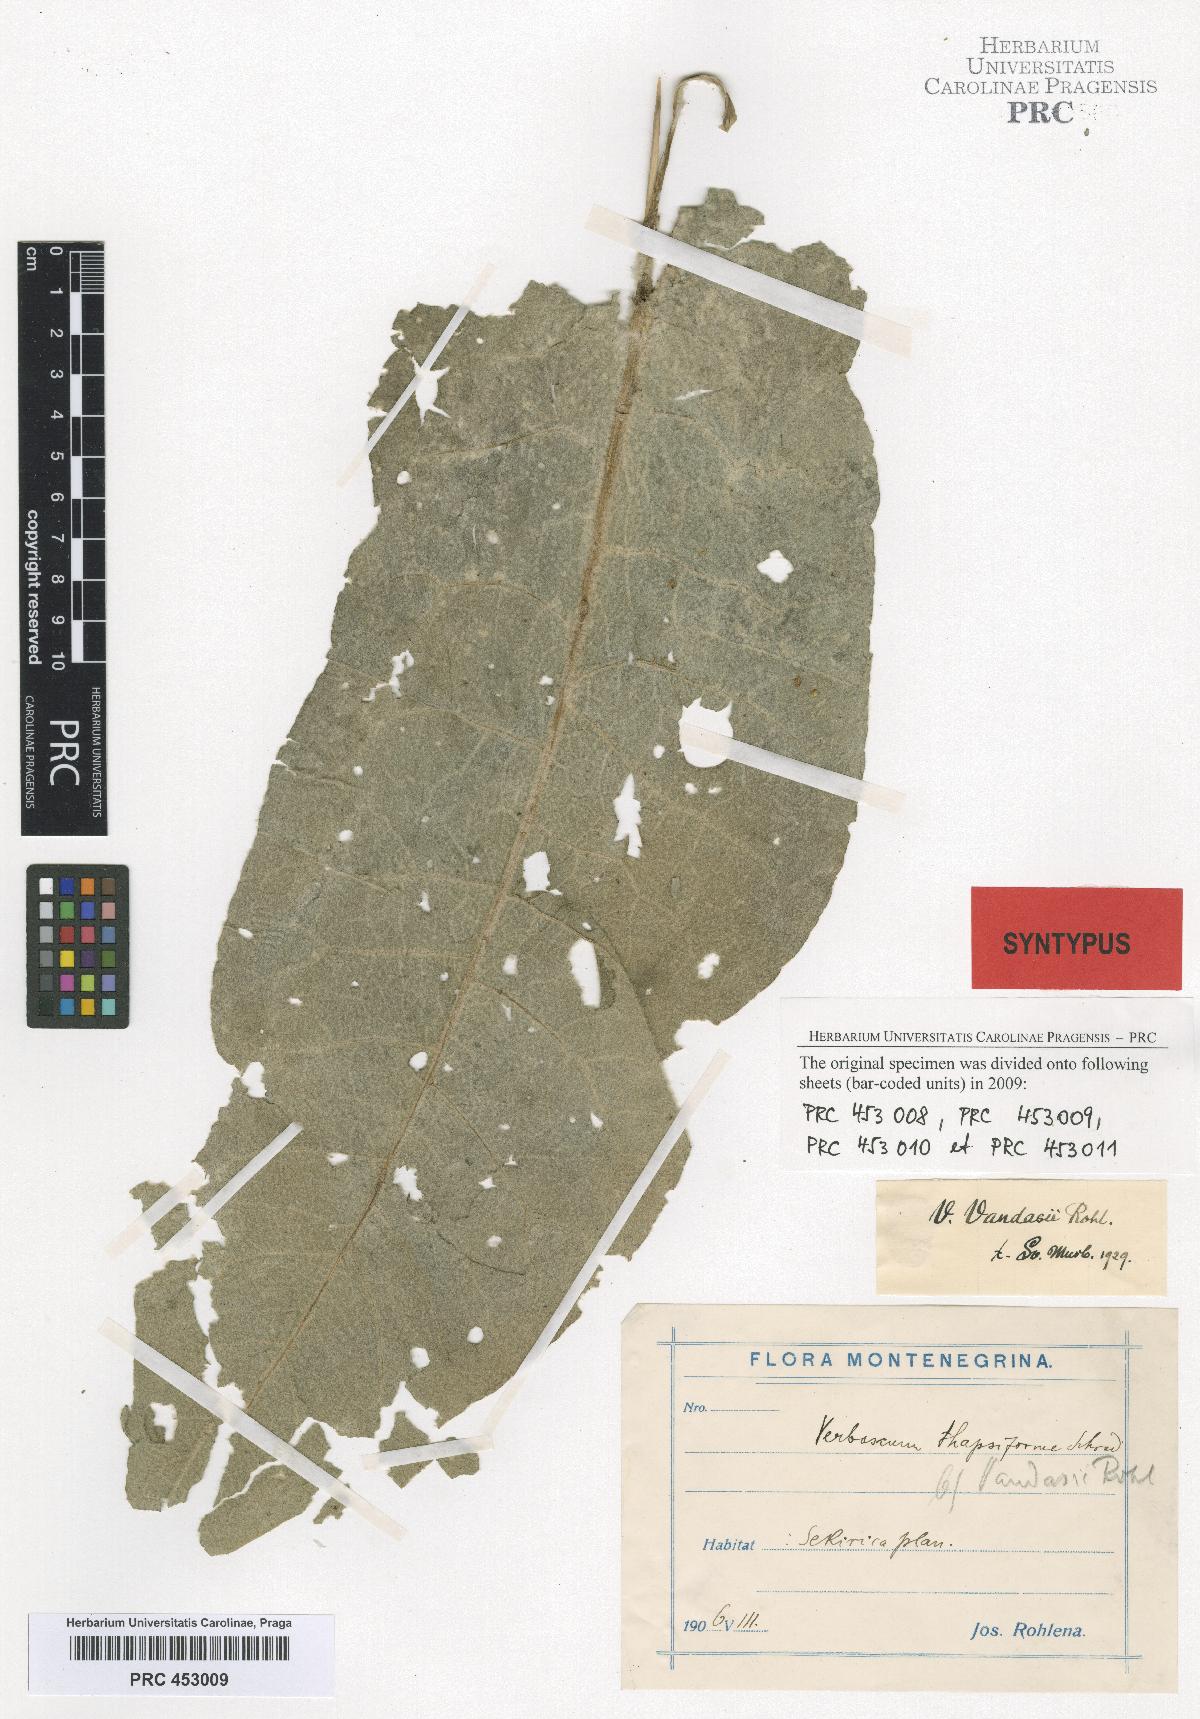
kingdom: Plantae
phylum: Tracheophyta
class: Magnoliopsida
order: Lamiales
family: Scrophulariaceae
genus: Verbascum
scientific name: Verbascum vandasii
